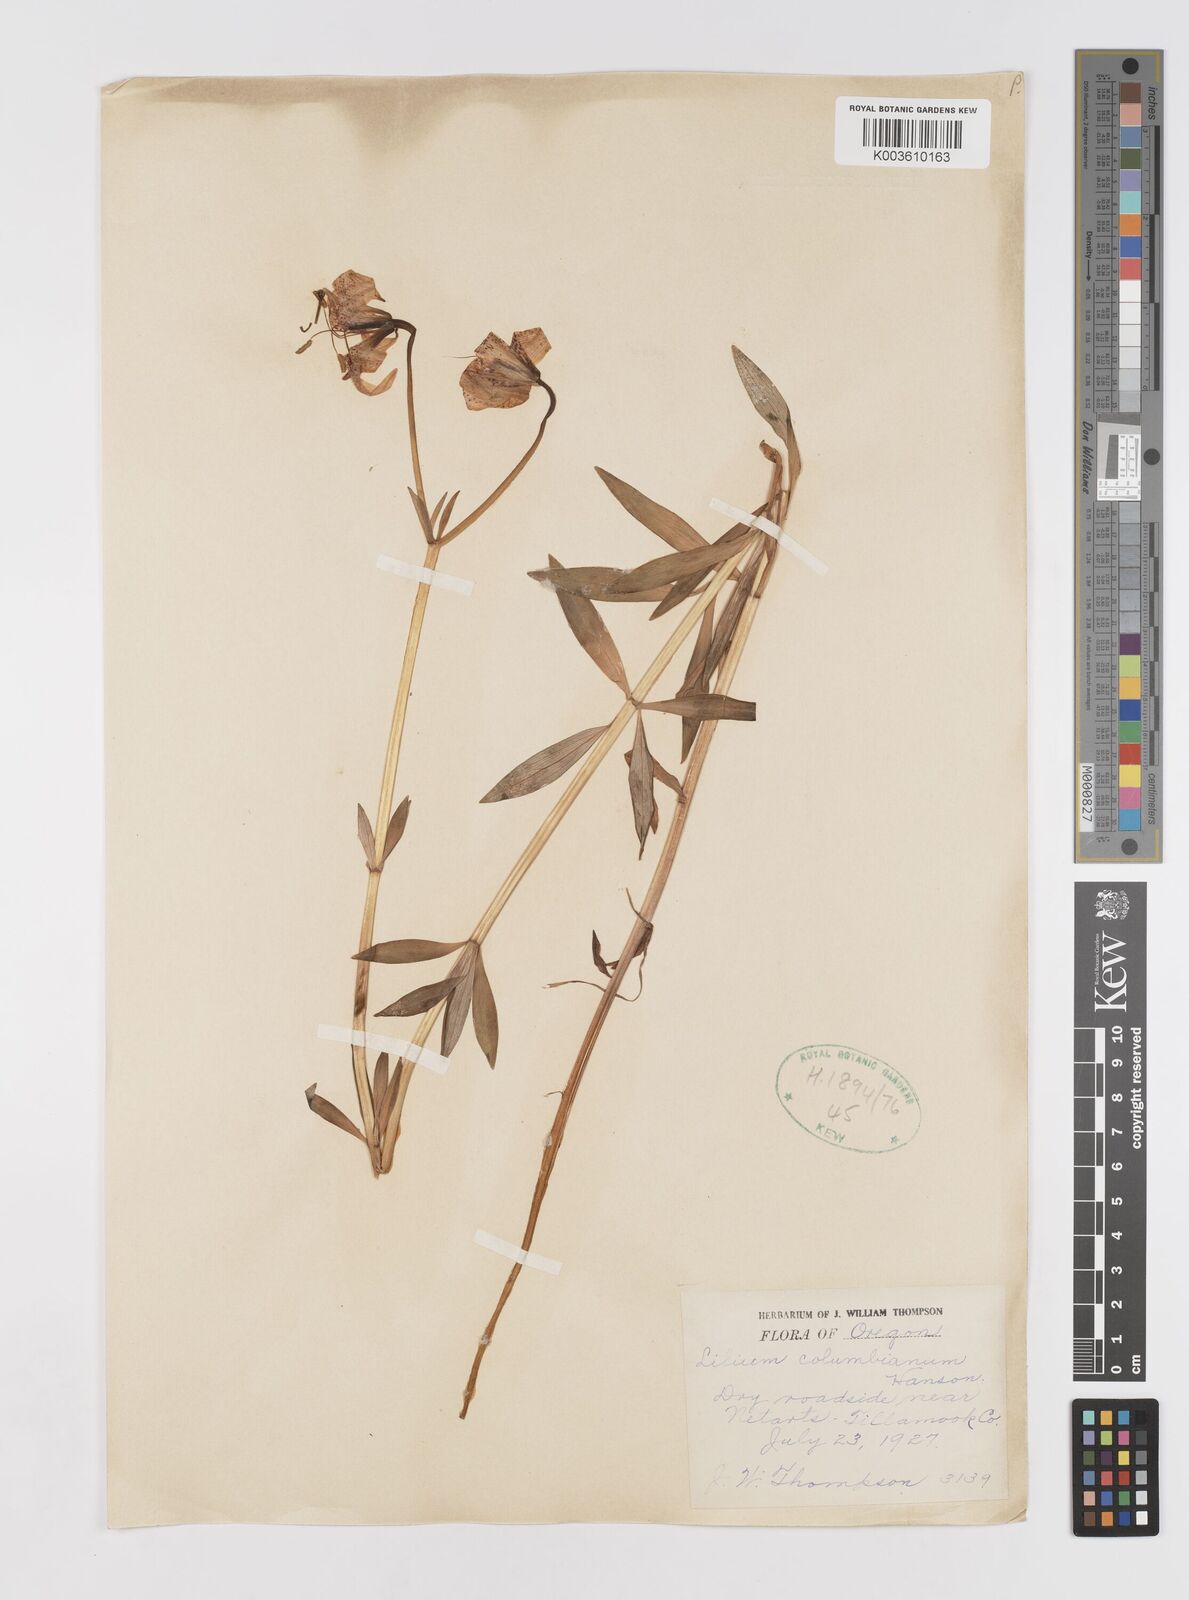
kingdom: Plantae
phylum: Tracheophyta
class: Liliopsida
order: Liliales
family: Liliaceae
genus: Lilium
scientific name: Lilium
